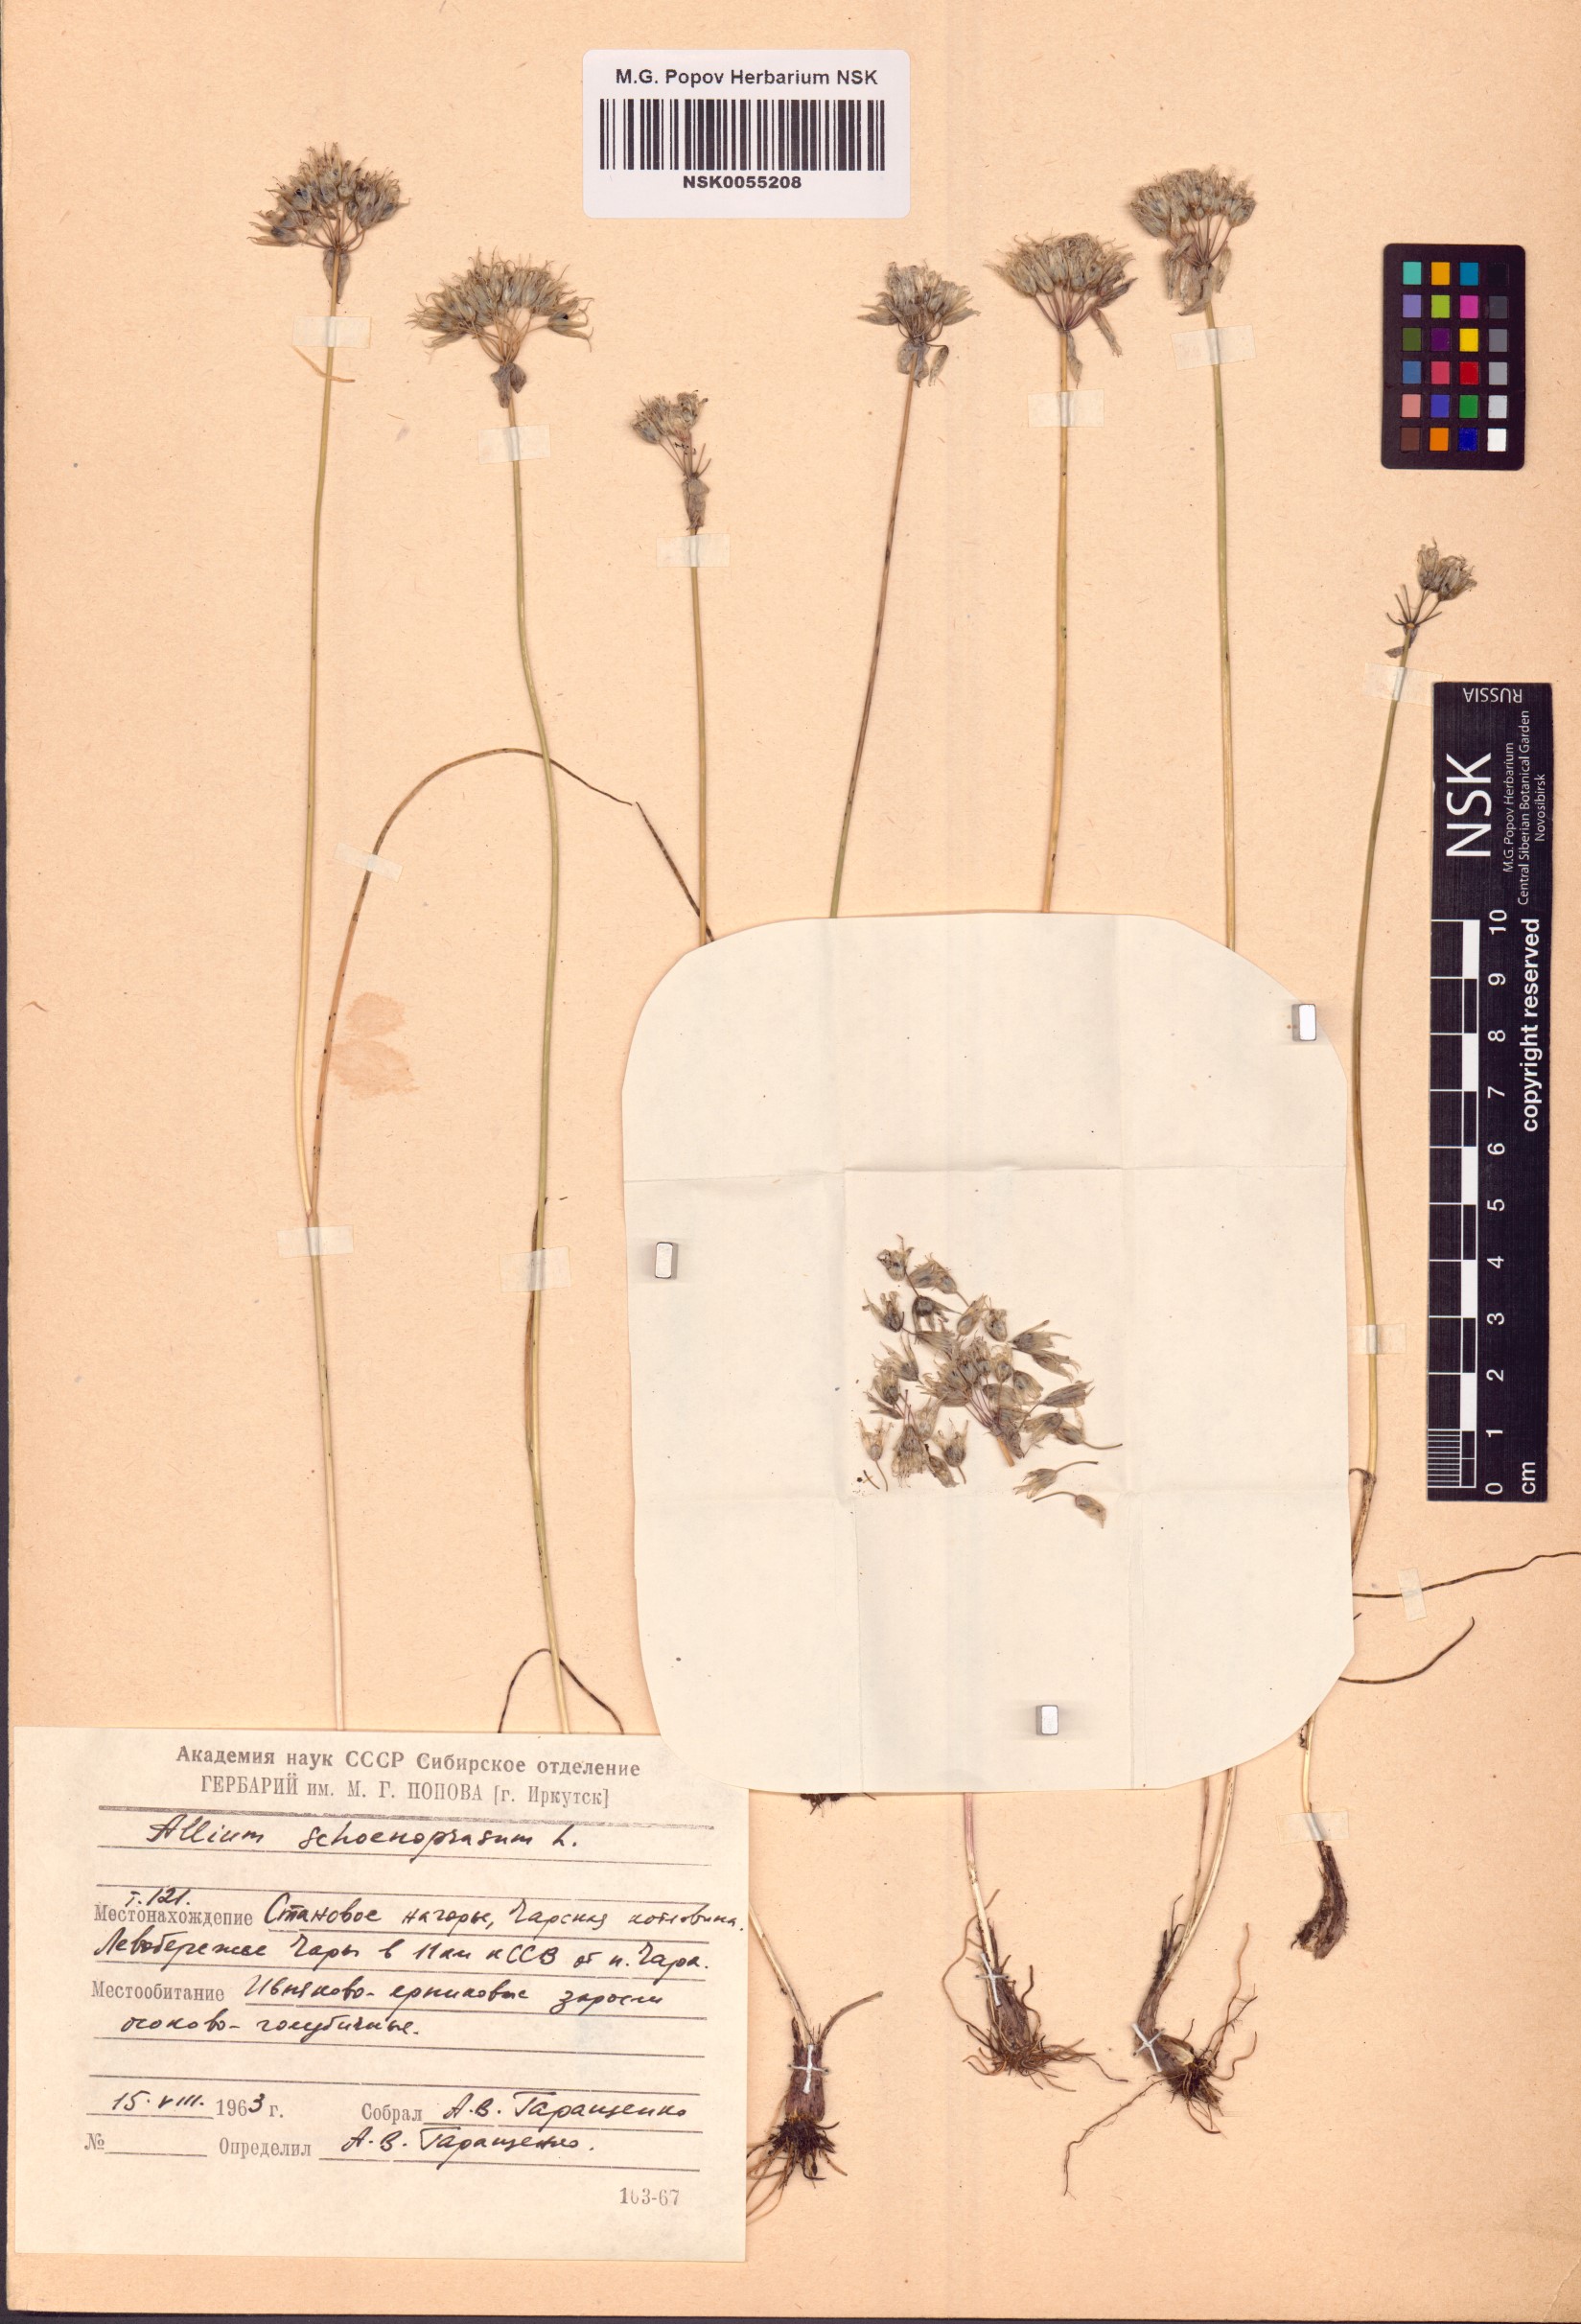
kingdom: Plantae
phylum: Tracheophyta
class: Liliopsida
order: Asparagales
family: Amaryllidaceae
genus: Allium
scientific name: Allium schoenoprasum
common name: Chives
